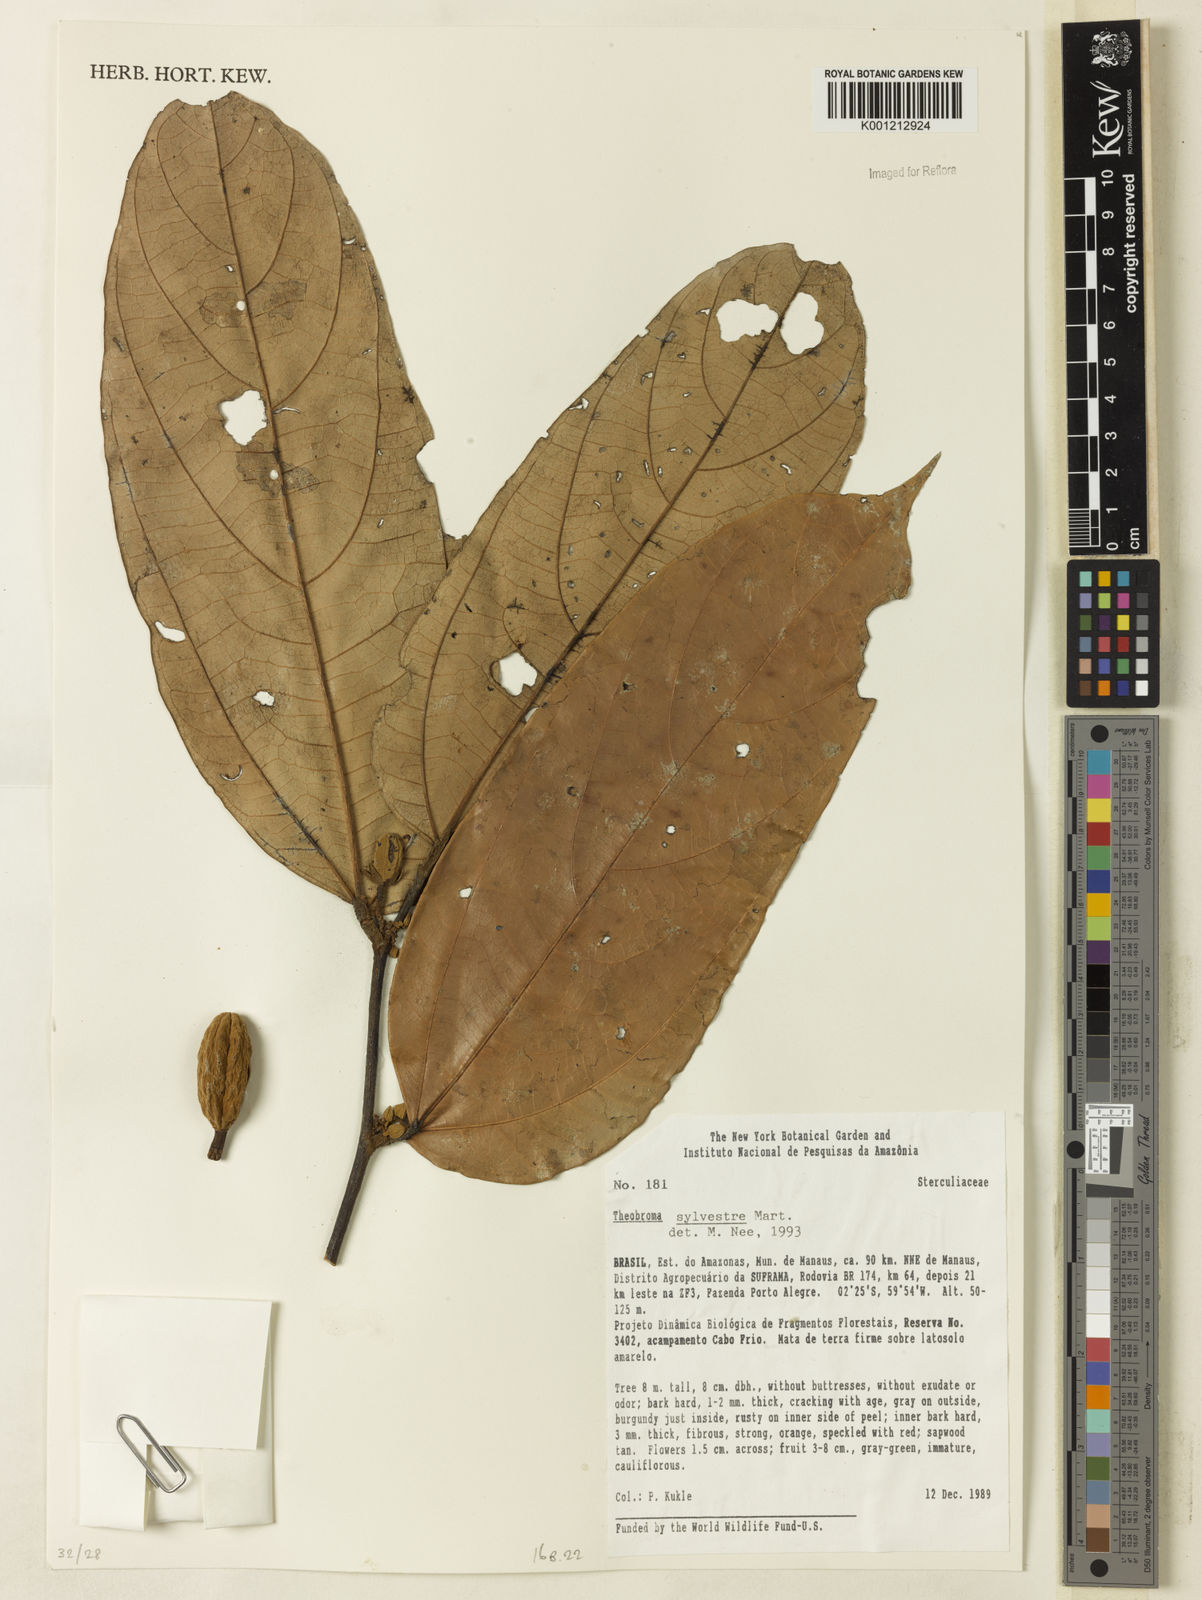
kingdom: Plantae
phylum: Tracheophyta
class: Magnoliopsida
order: Malvales
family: Malvaceae
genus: Theobroma
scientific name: Theobroma sylvestre
